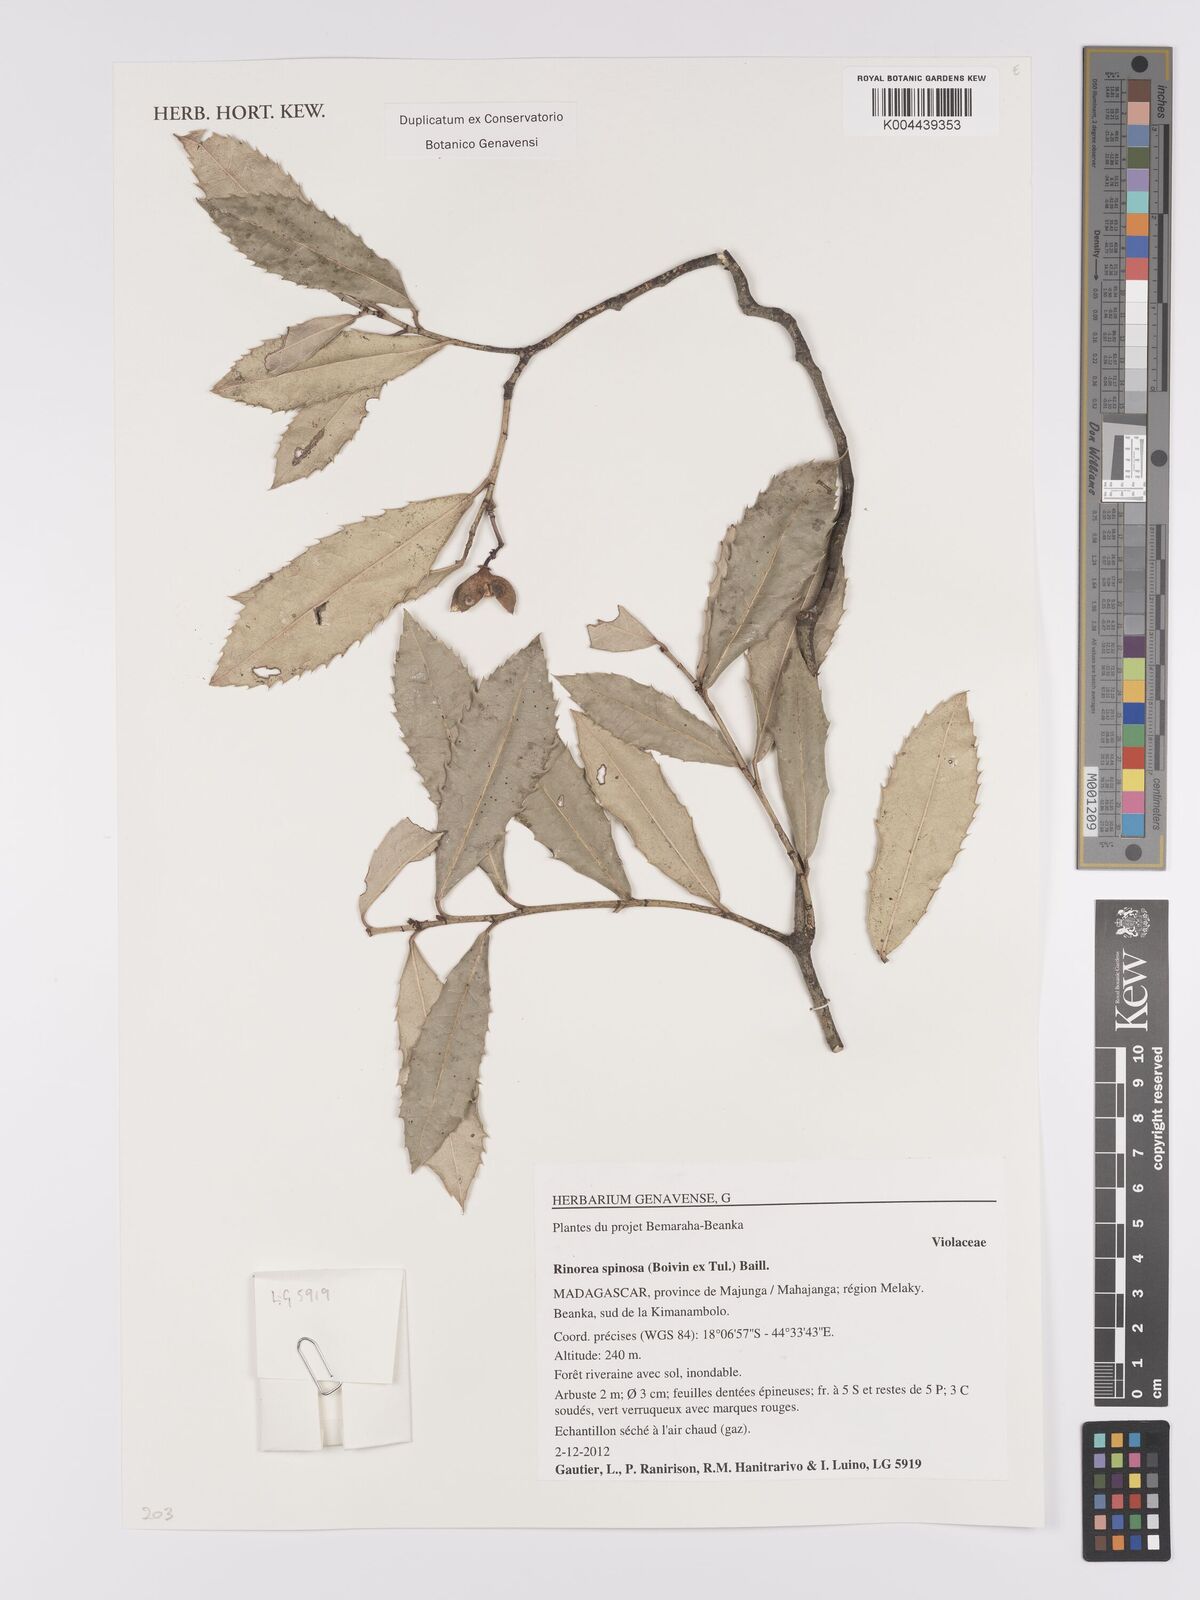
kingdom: Plantae
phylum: Tracheophyta
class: Magnoliopsida
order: Malpighiales
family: Violaceae
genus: Rinorea
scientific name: Rinorea spinosa
